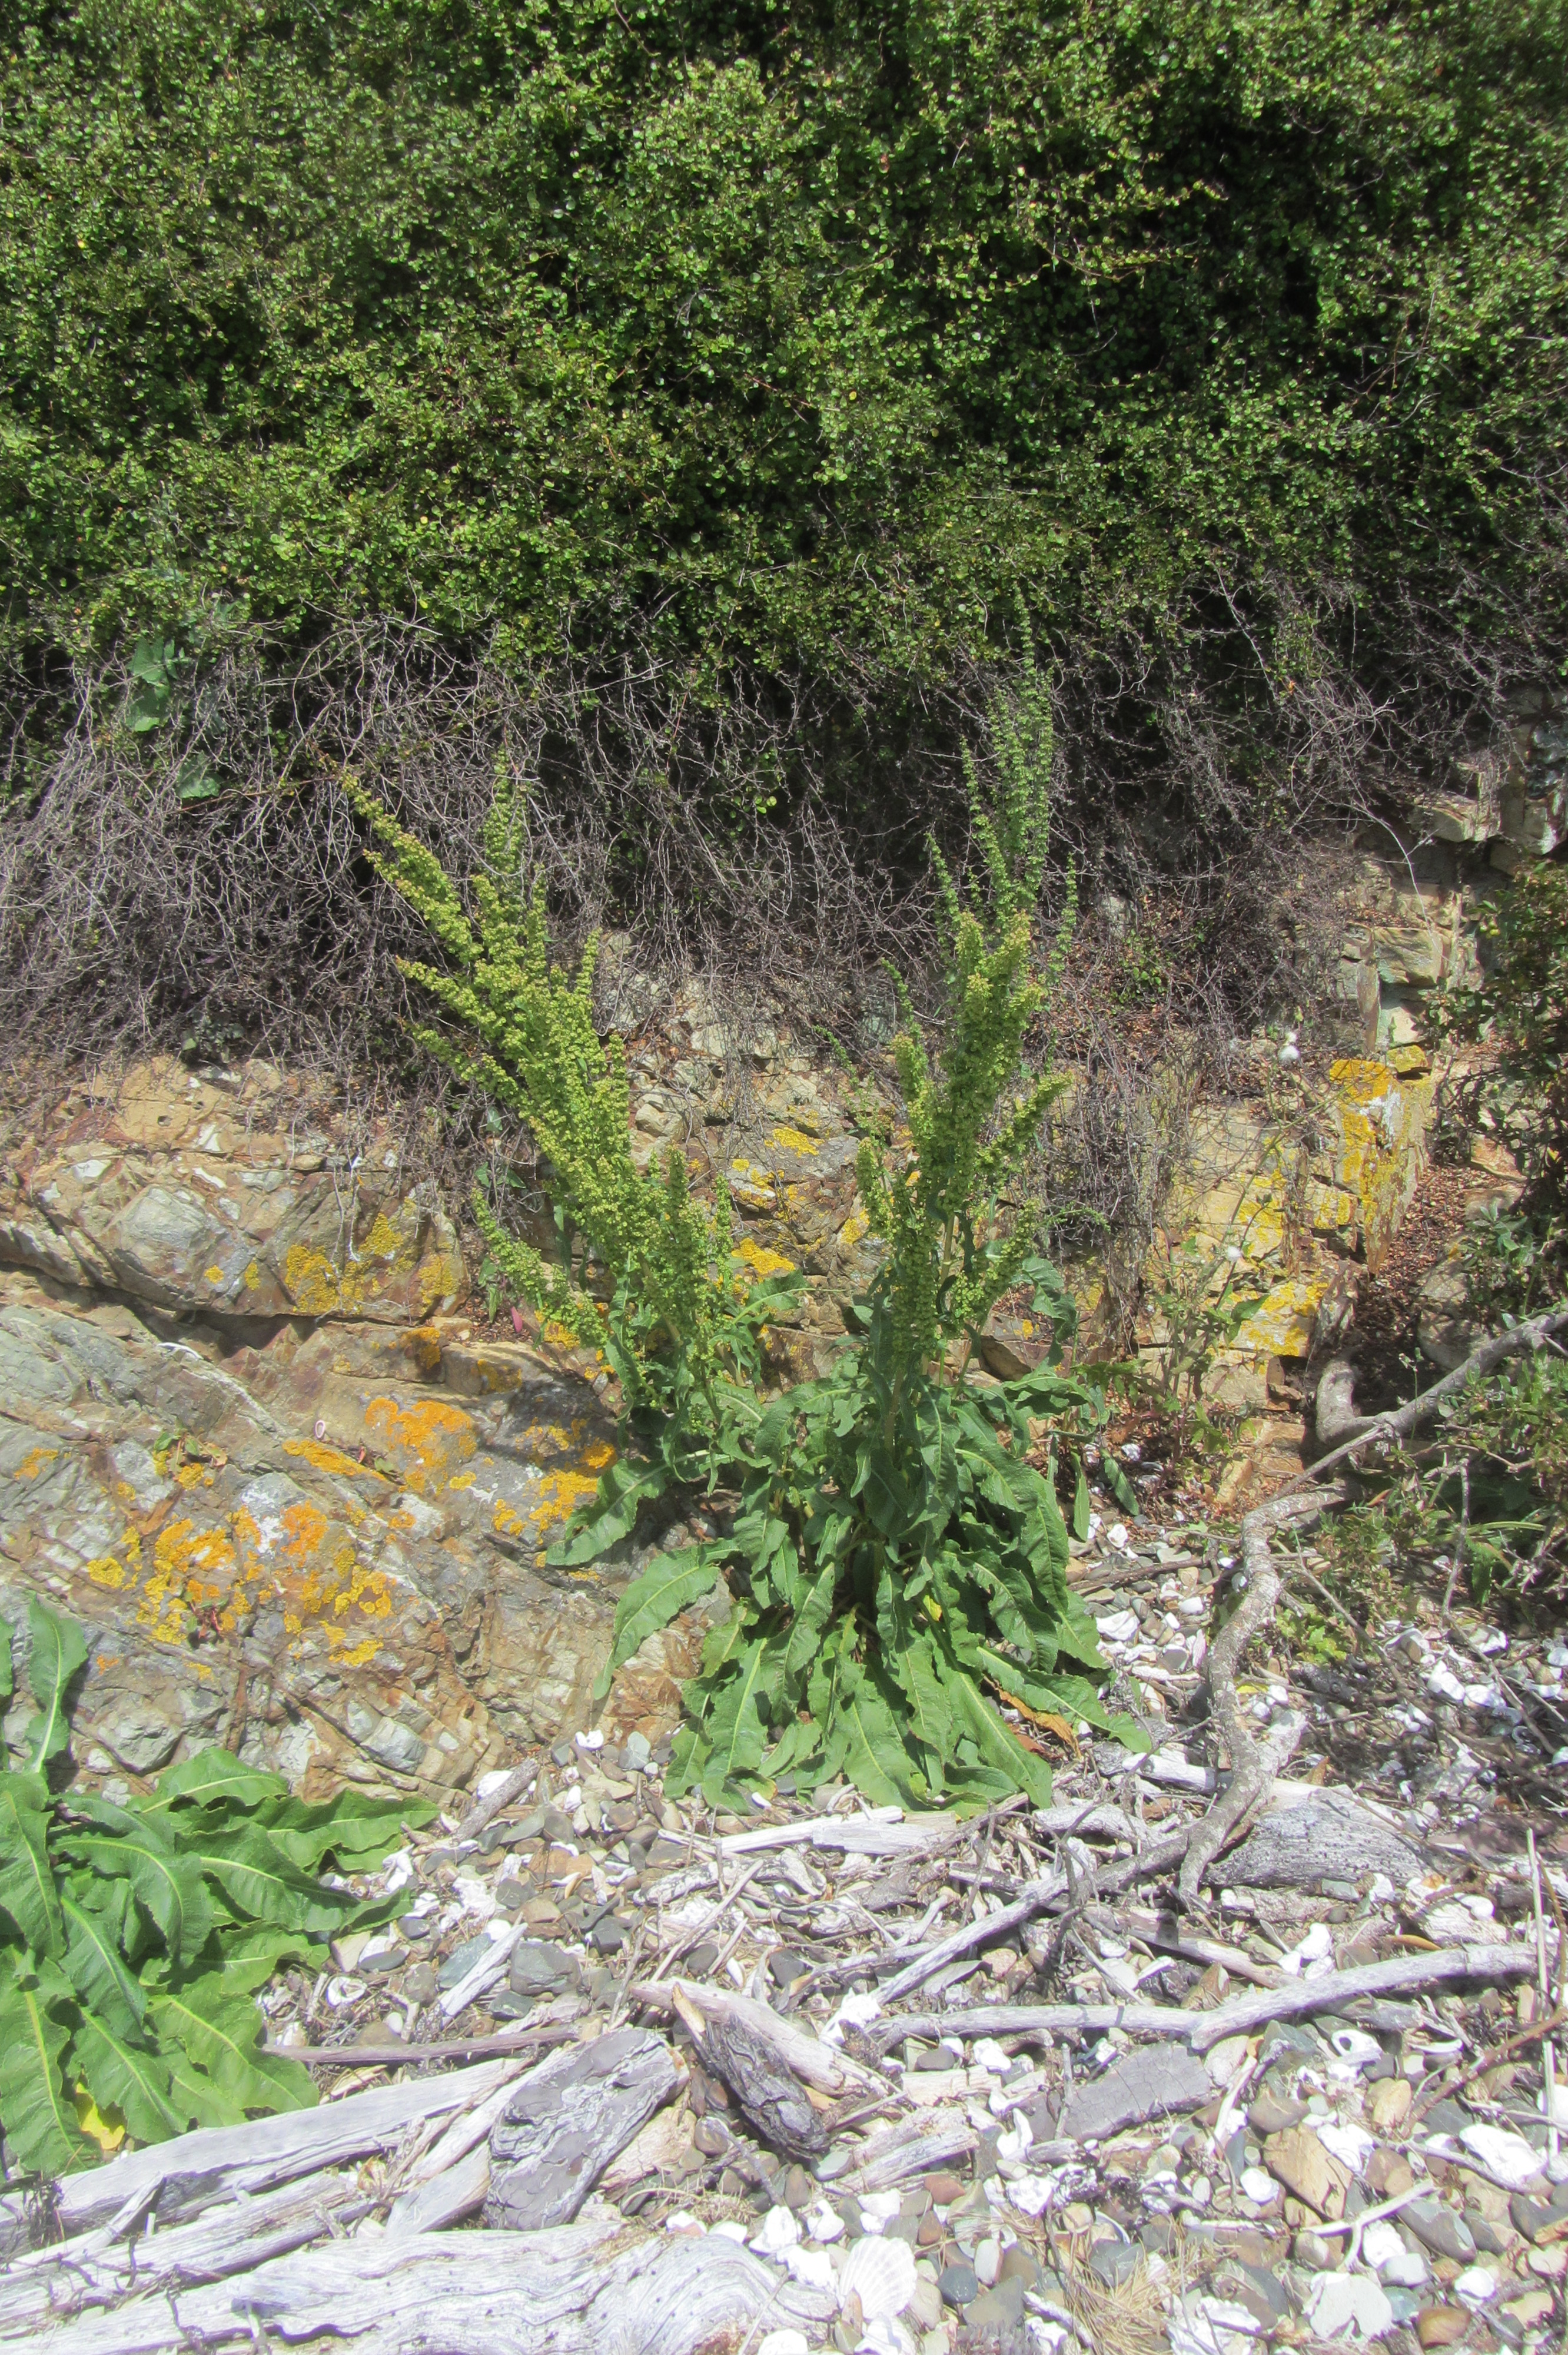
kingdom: Plantae
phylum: Tracheophyta
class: Magnoliopsida
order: Caryophyllales
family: Polygonaceae
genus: Rumex
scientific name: Rumex crispus
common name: Curled dock
